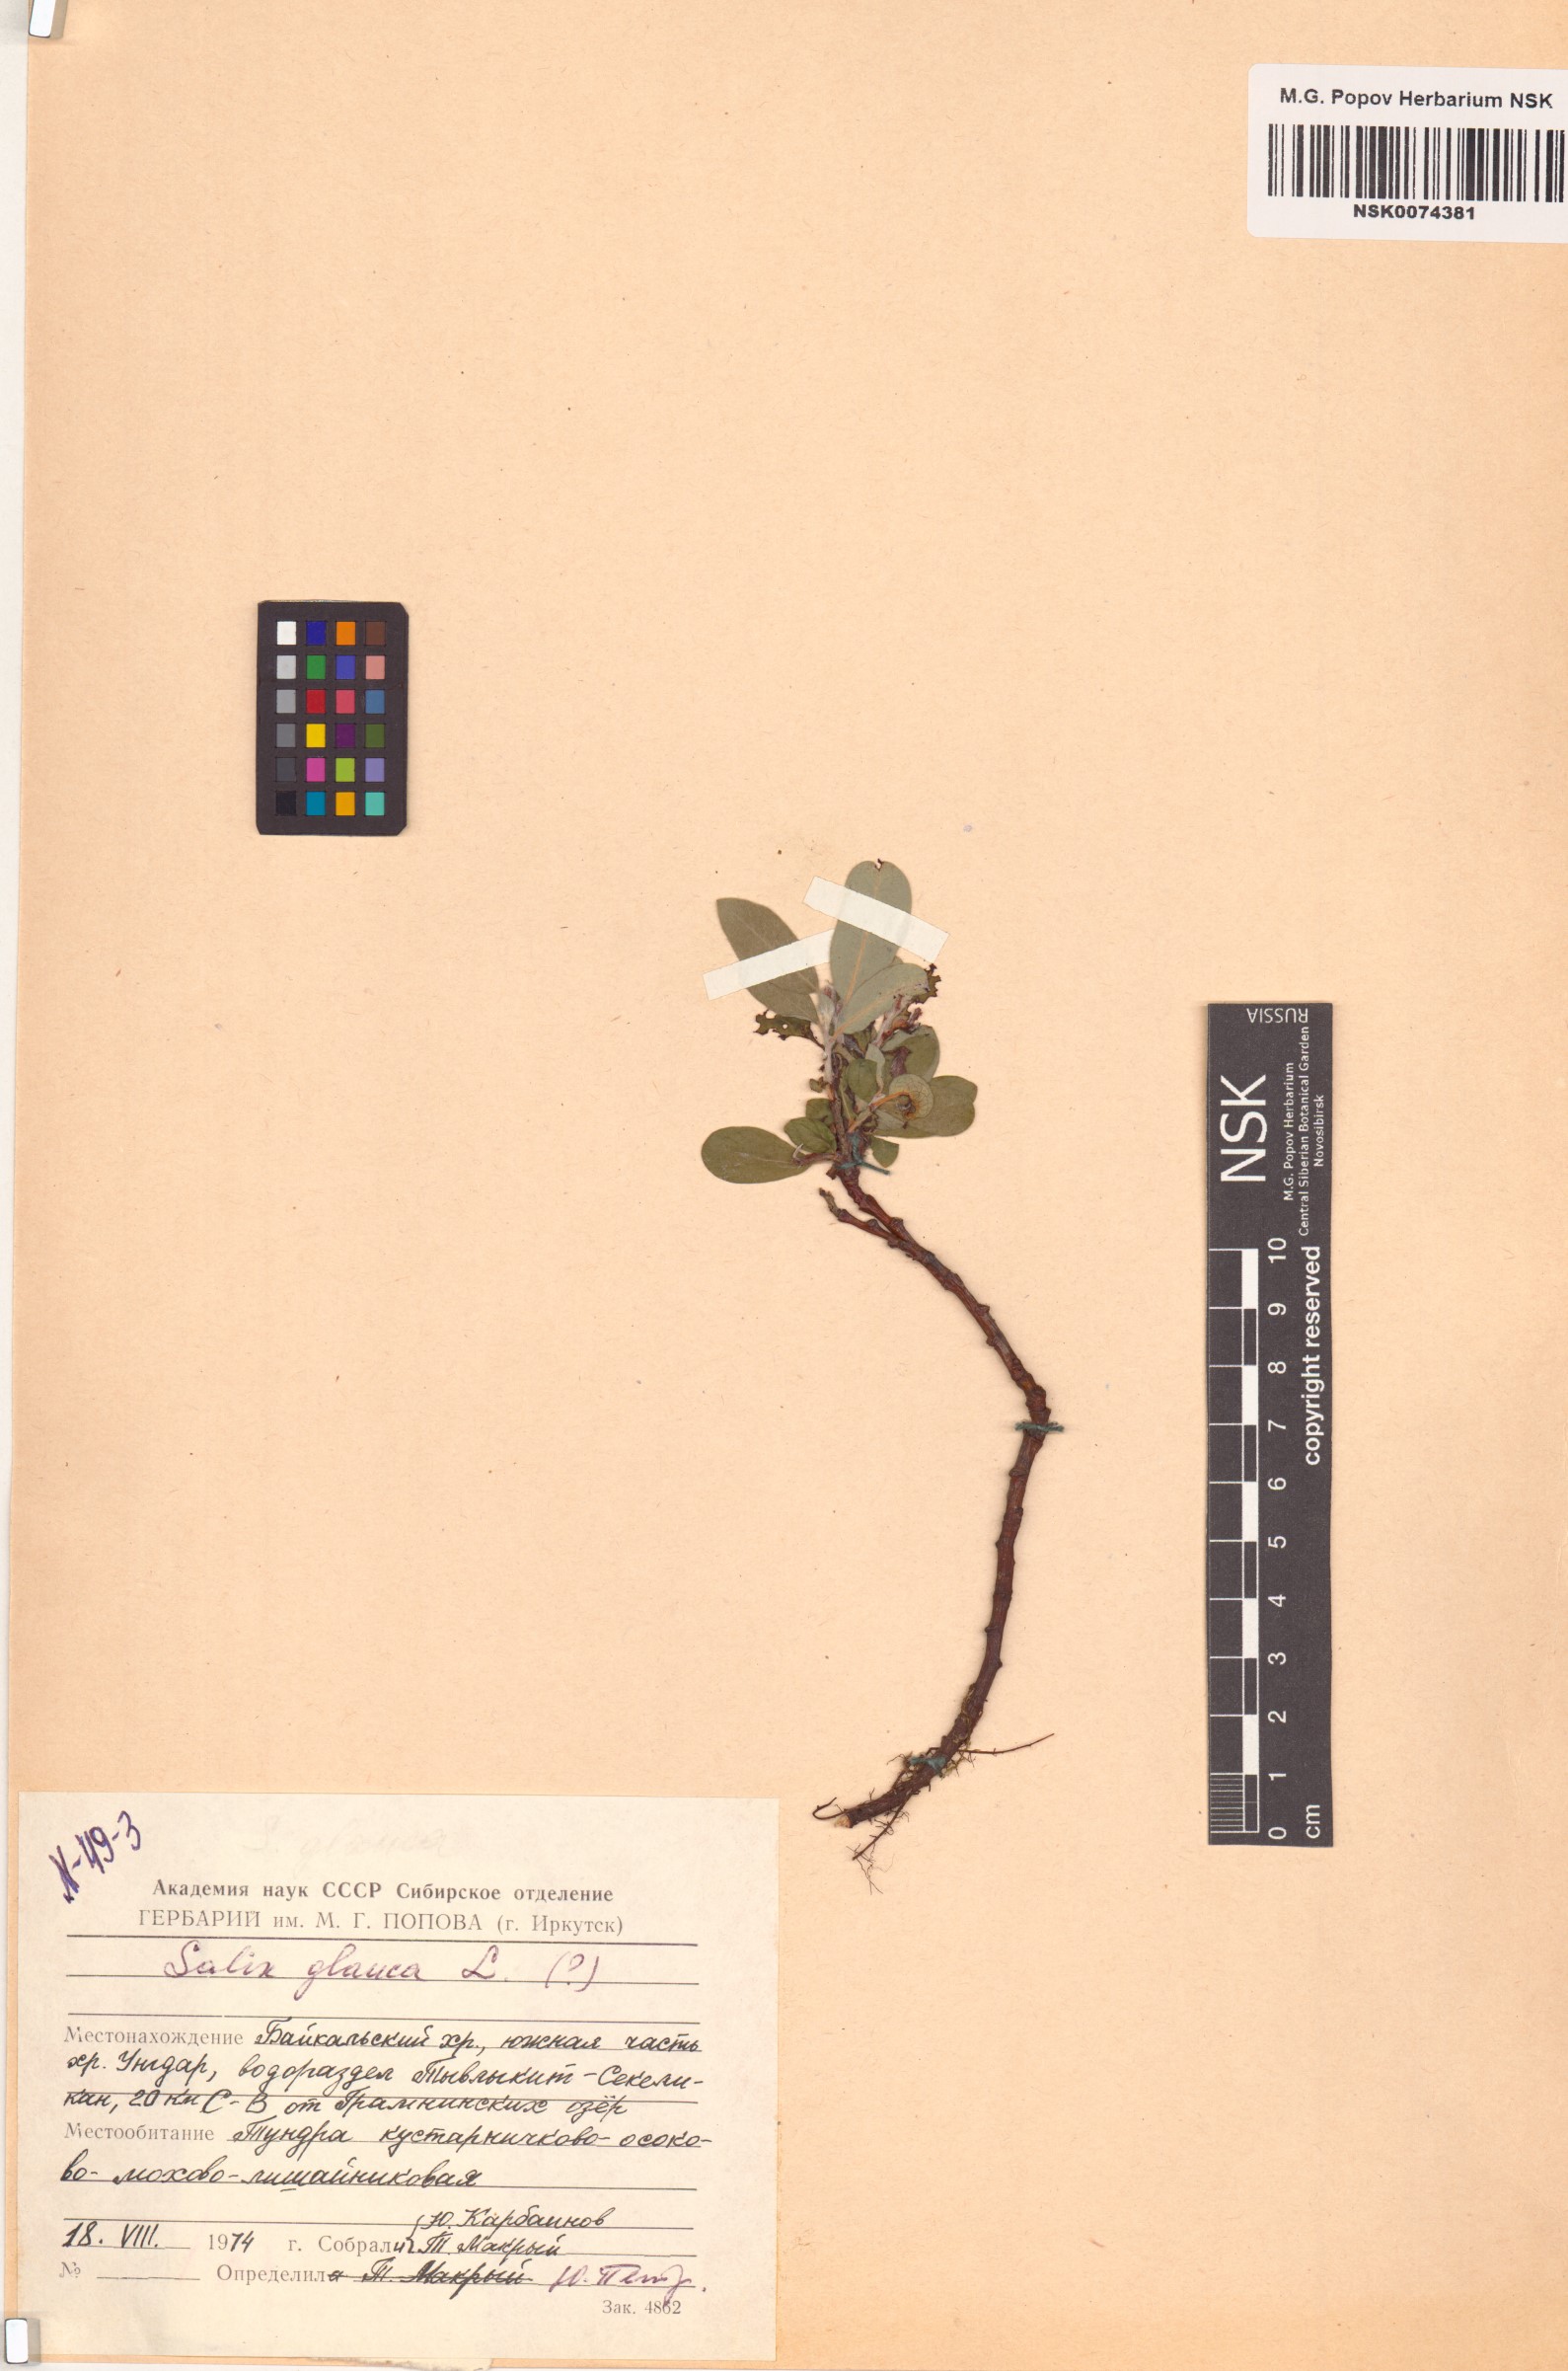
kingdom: Plantae
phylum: Tracheophyta
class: Magnoliopsida
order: Malpighiales
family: Salicaceae
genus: Salix
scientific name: Salix glauca
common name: Glaucous willow
